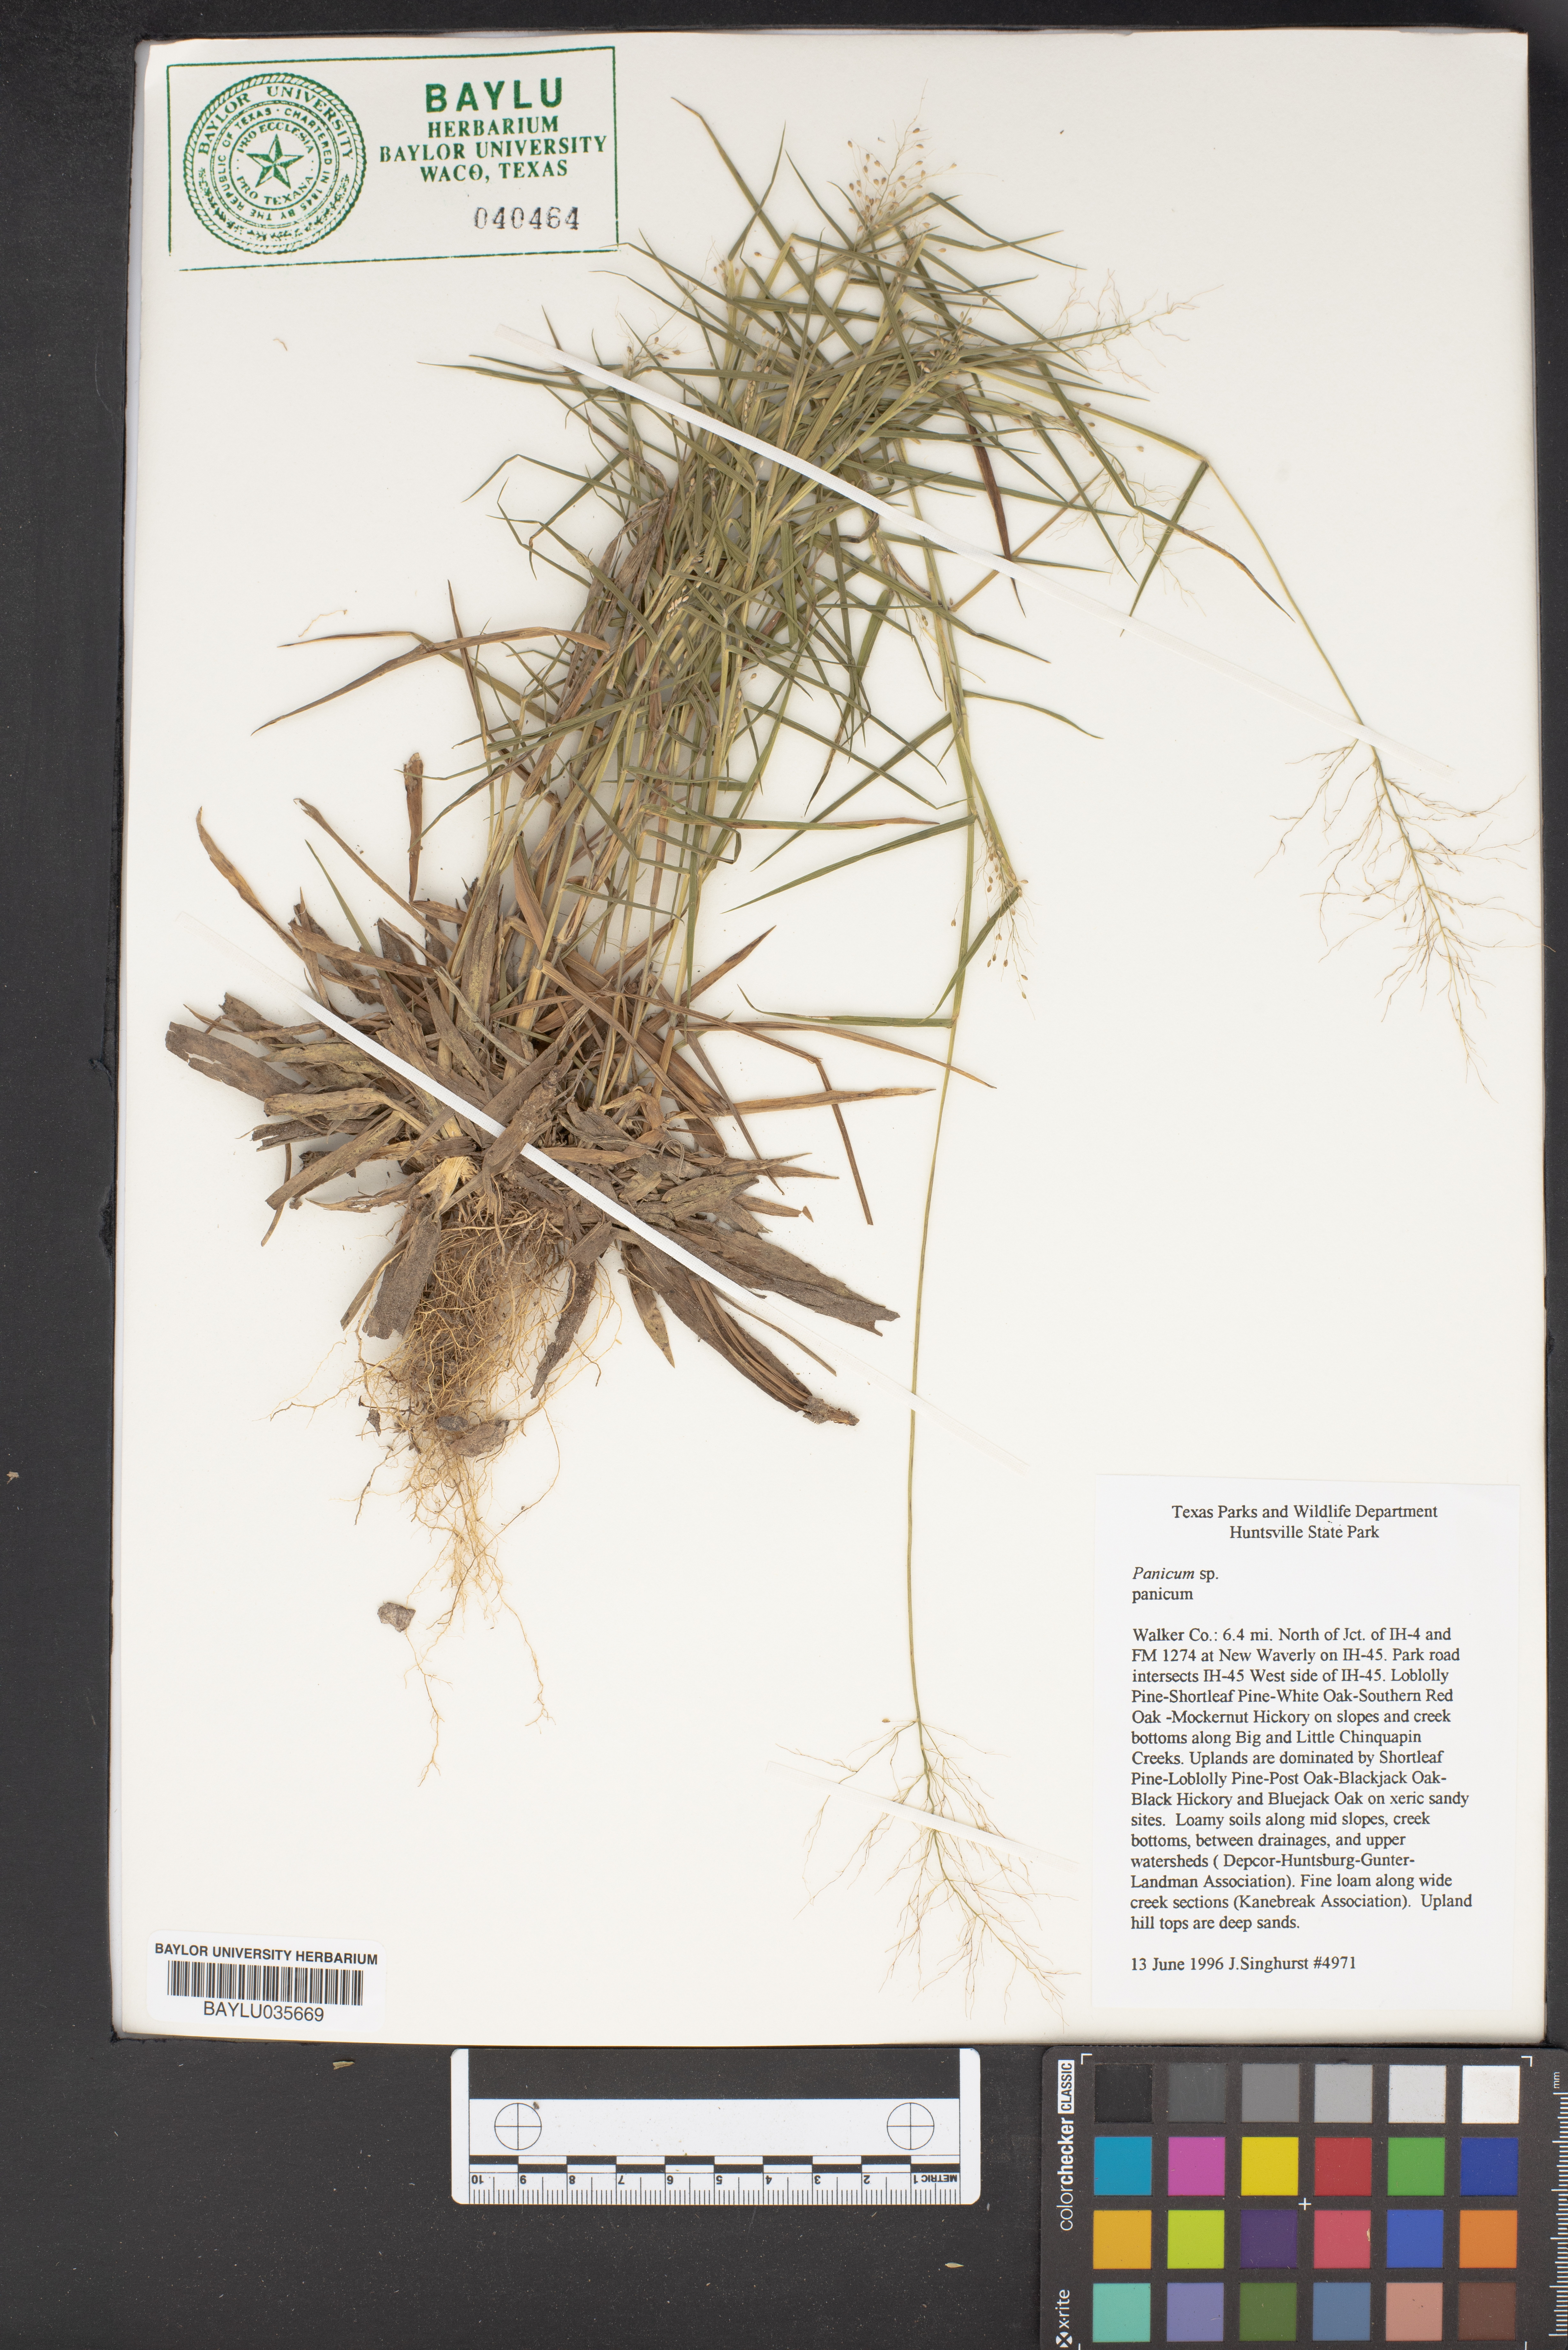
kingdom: Plantae
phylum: Tracheophyta
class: Liliopsida
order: Poales
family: Poaceae
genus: Panicum
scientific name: Panicum
